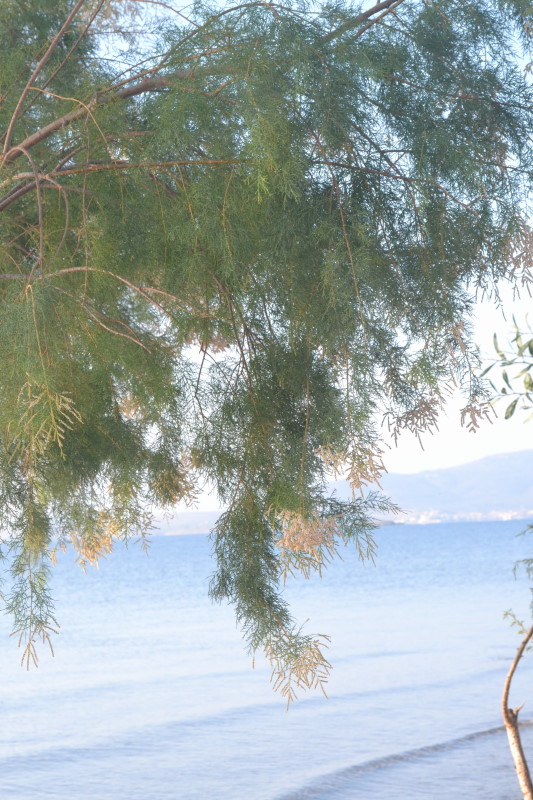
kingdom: Plantae
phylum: Tracheophyta
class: Magnoliopsida
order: Caryophyllales
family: Tamaricaceae
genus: Tamarix
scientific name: Tamarix
